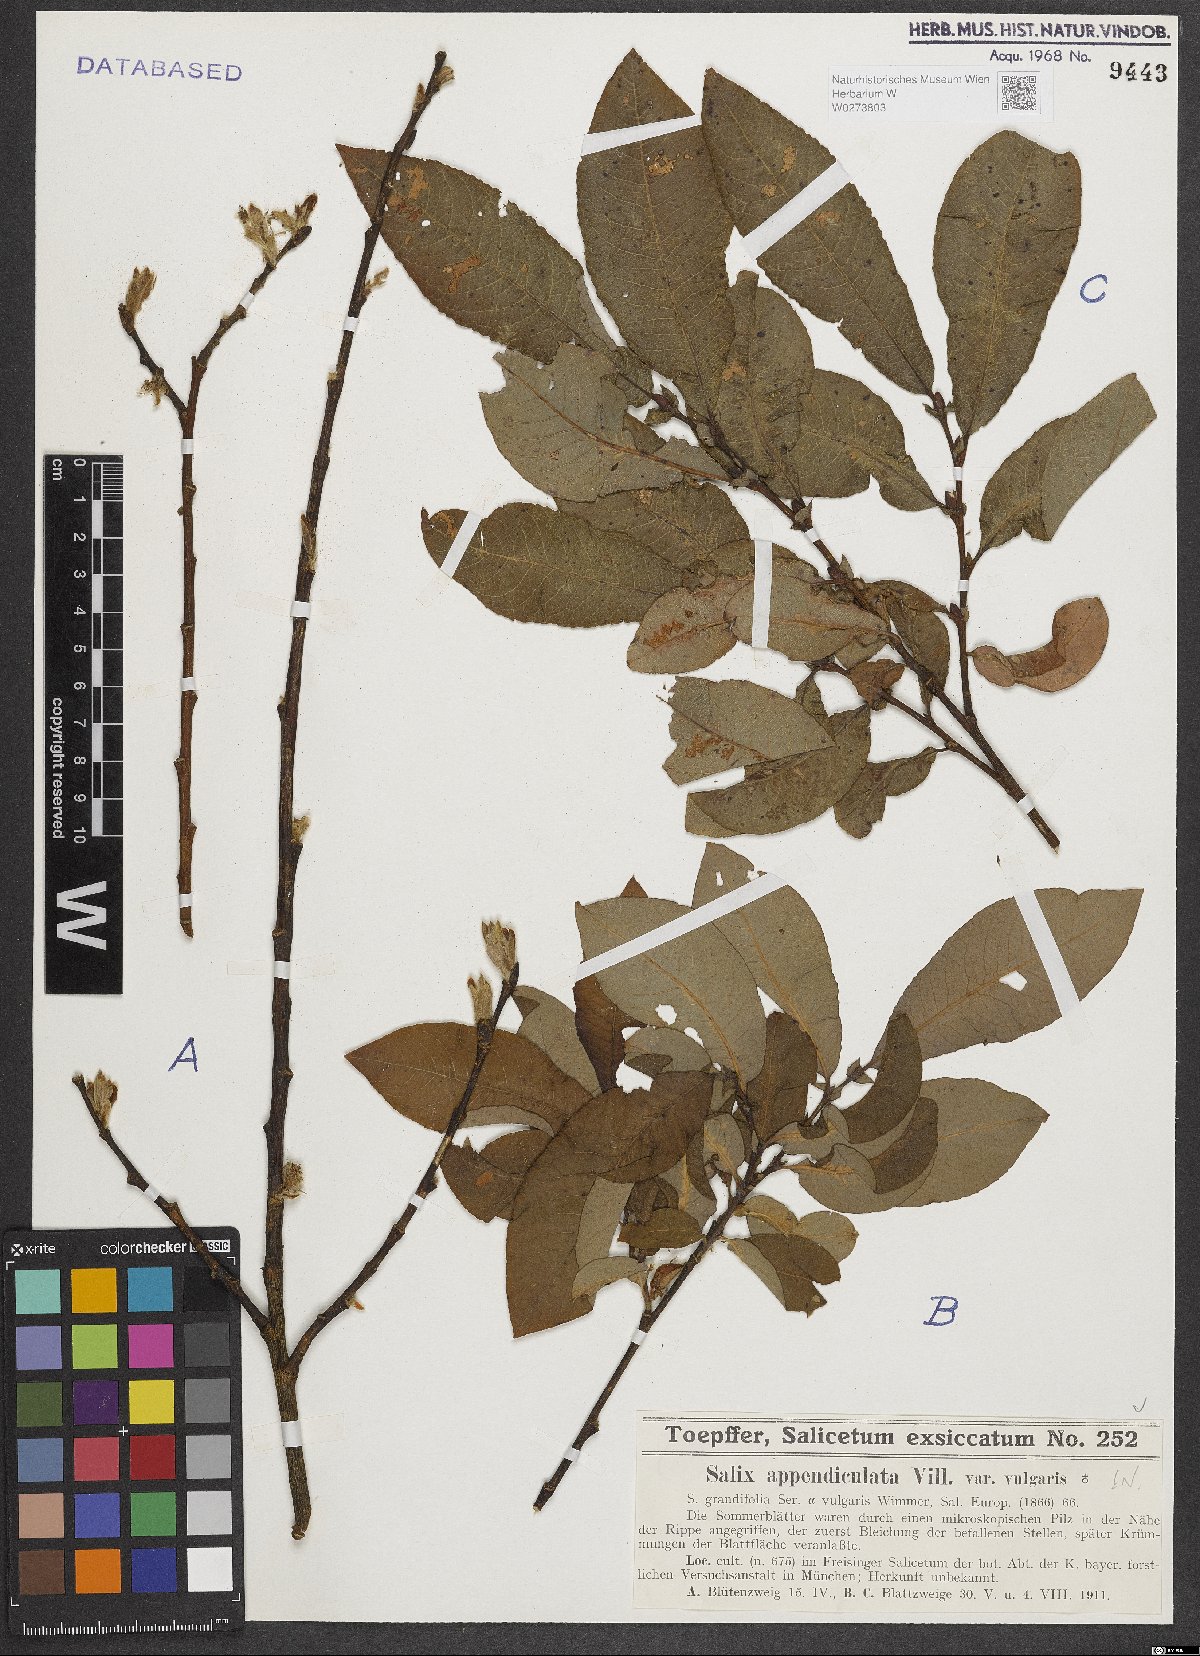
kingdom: Plantae
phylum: Tracheophyta
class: Magnoliopsida
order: Malpighiales
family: Salicaceae
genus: Salix
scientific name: Salix appendiculata
